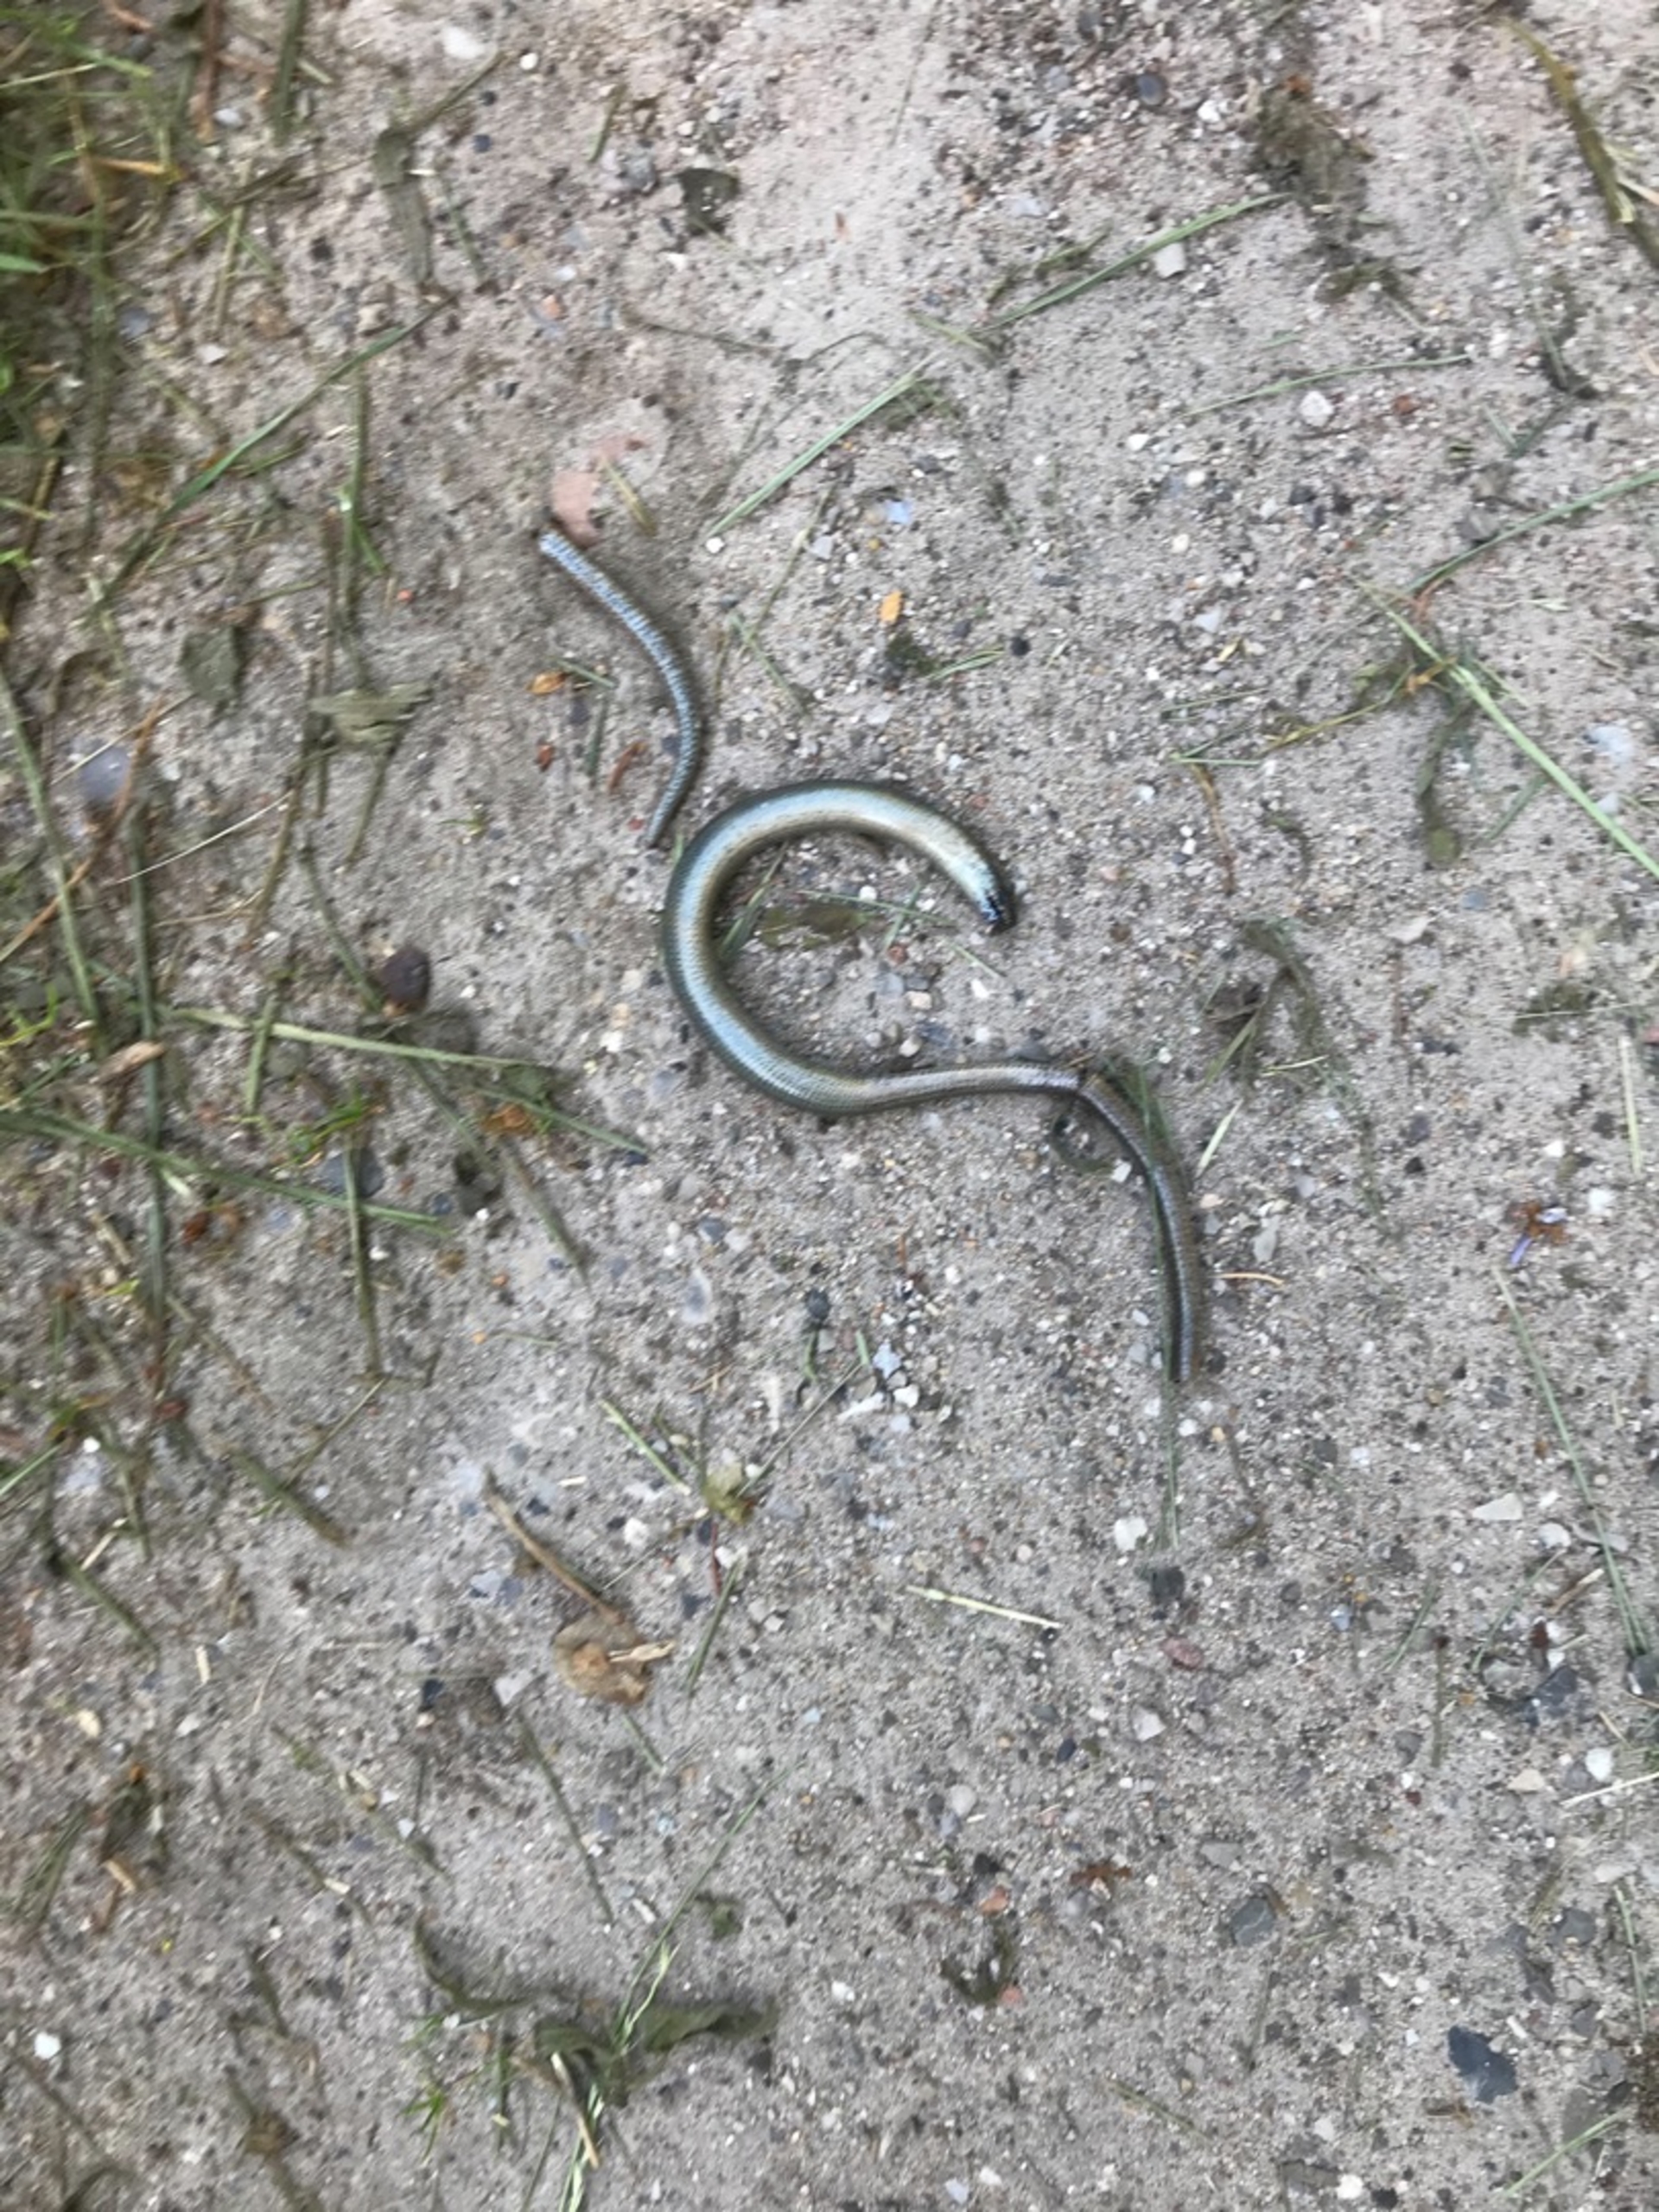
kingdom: Animalia
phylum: Chordata
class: Squamata
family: Anguidae
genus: Anguis
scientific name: Anguis fragilis
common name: Stålorm
